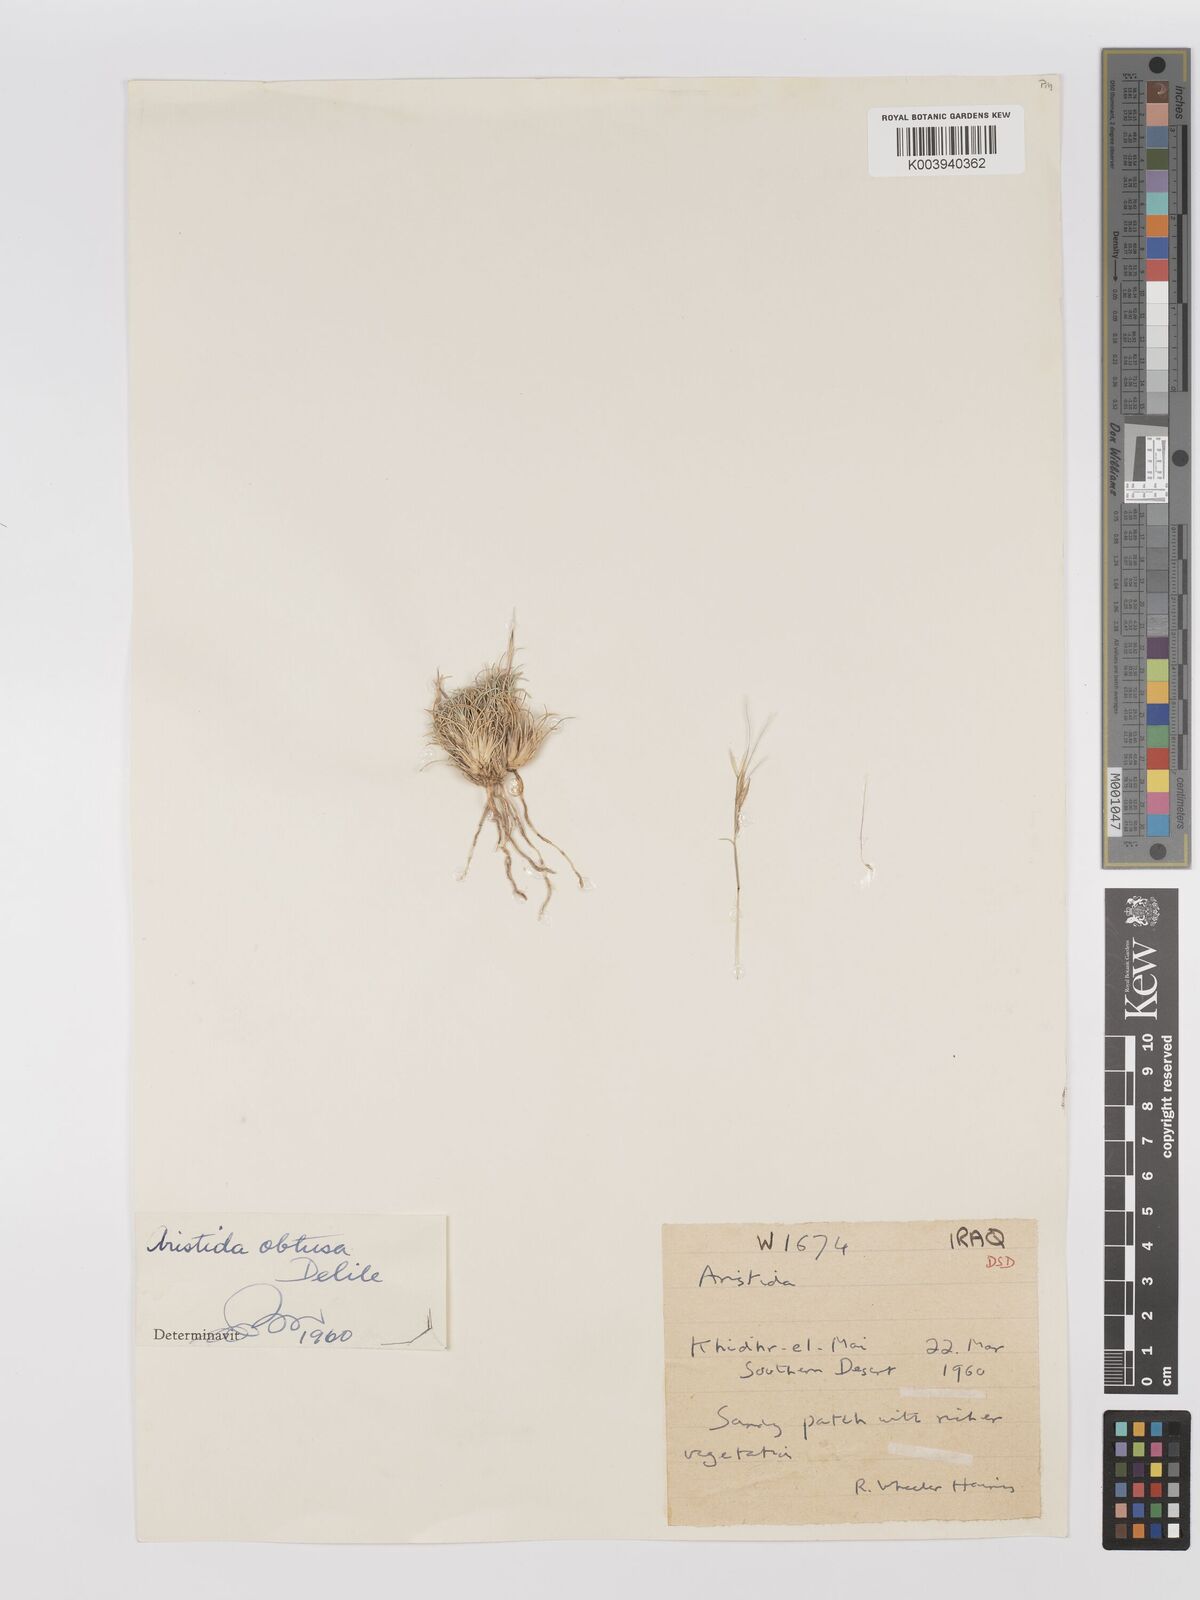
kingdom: Plantae
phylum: Tracheophyta
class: Liliopsida
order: Poales
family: Poaceae
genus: Stipagrostis
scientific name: Stipagrostis obtusa
